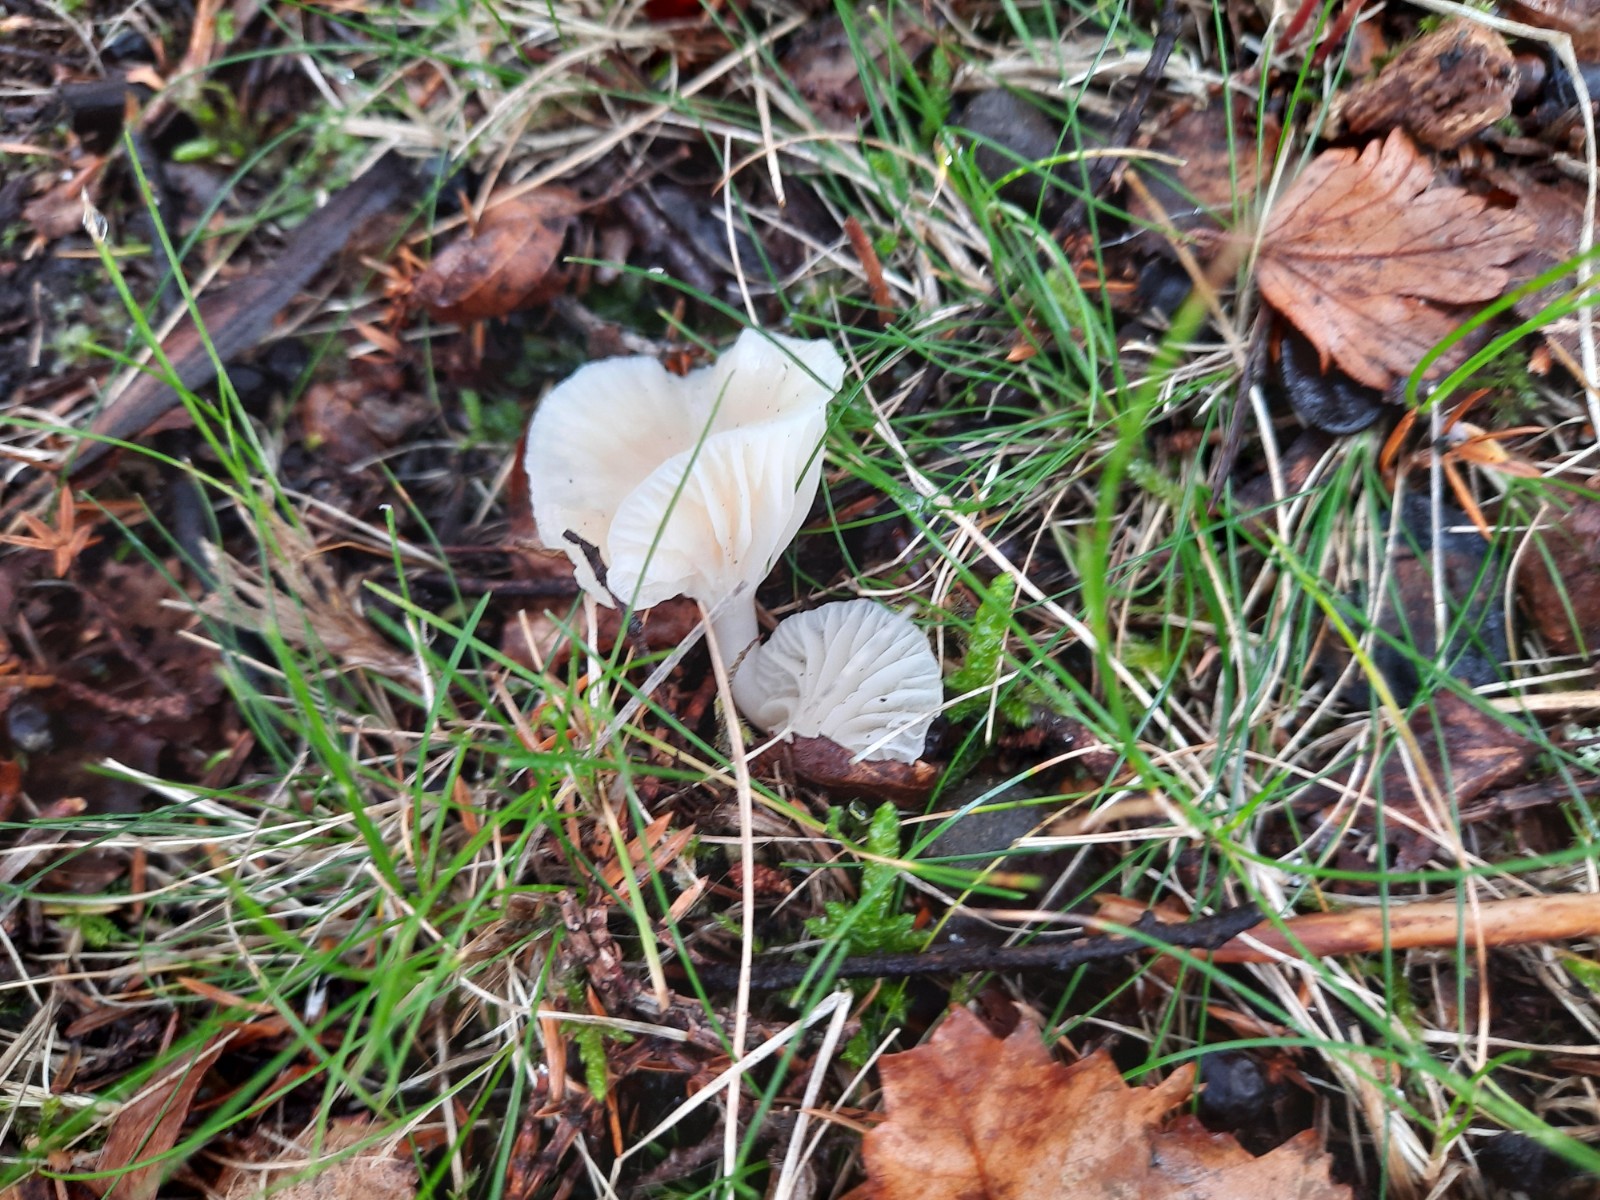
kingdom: Fungi
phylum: Basidiomycota
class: Agaricomycetes
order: Agaricales
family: Hygrophoraceae
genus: Cuphophyllus
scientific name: Cuphophyllus virgineus
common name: snehvid vokshat
